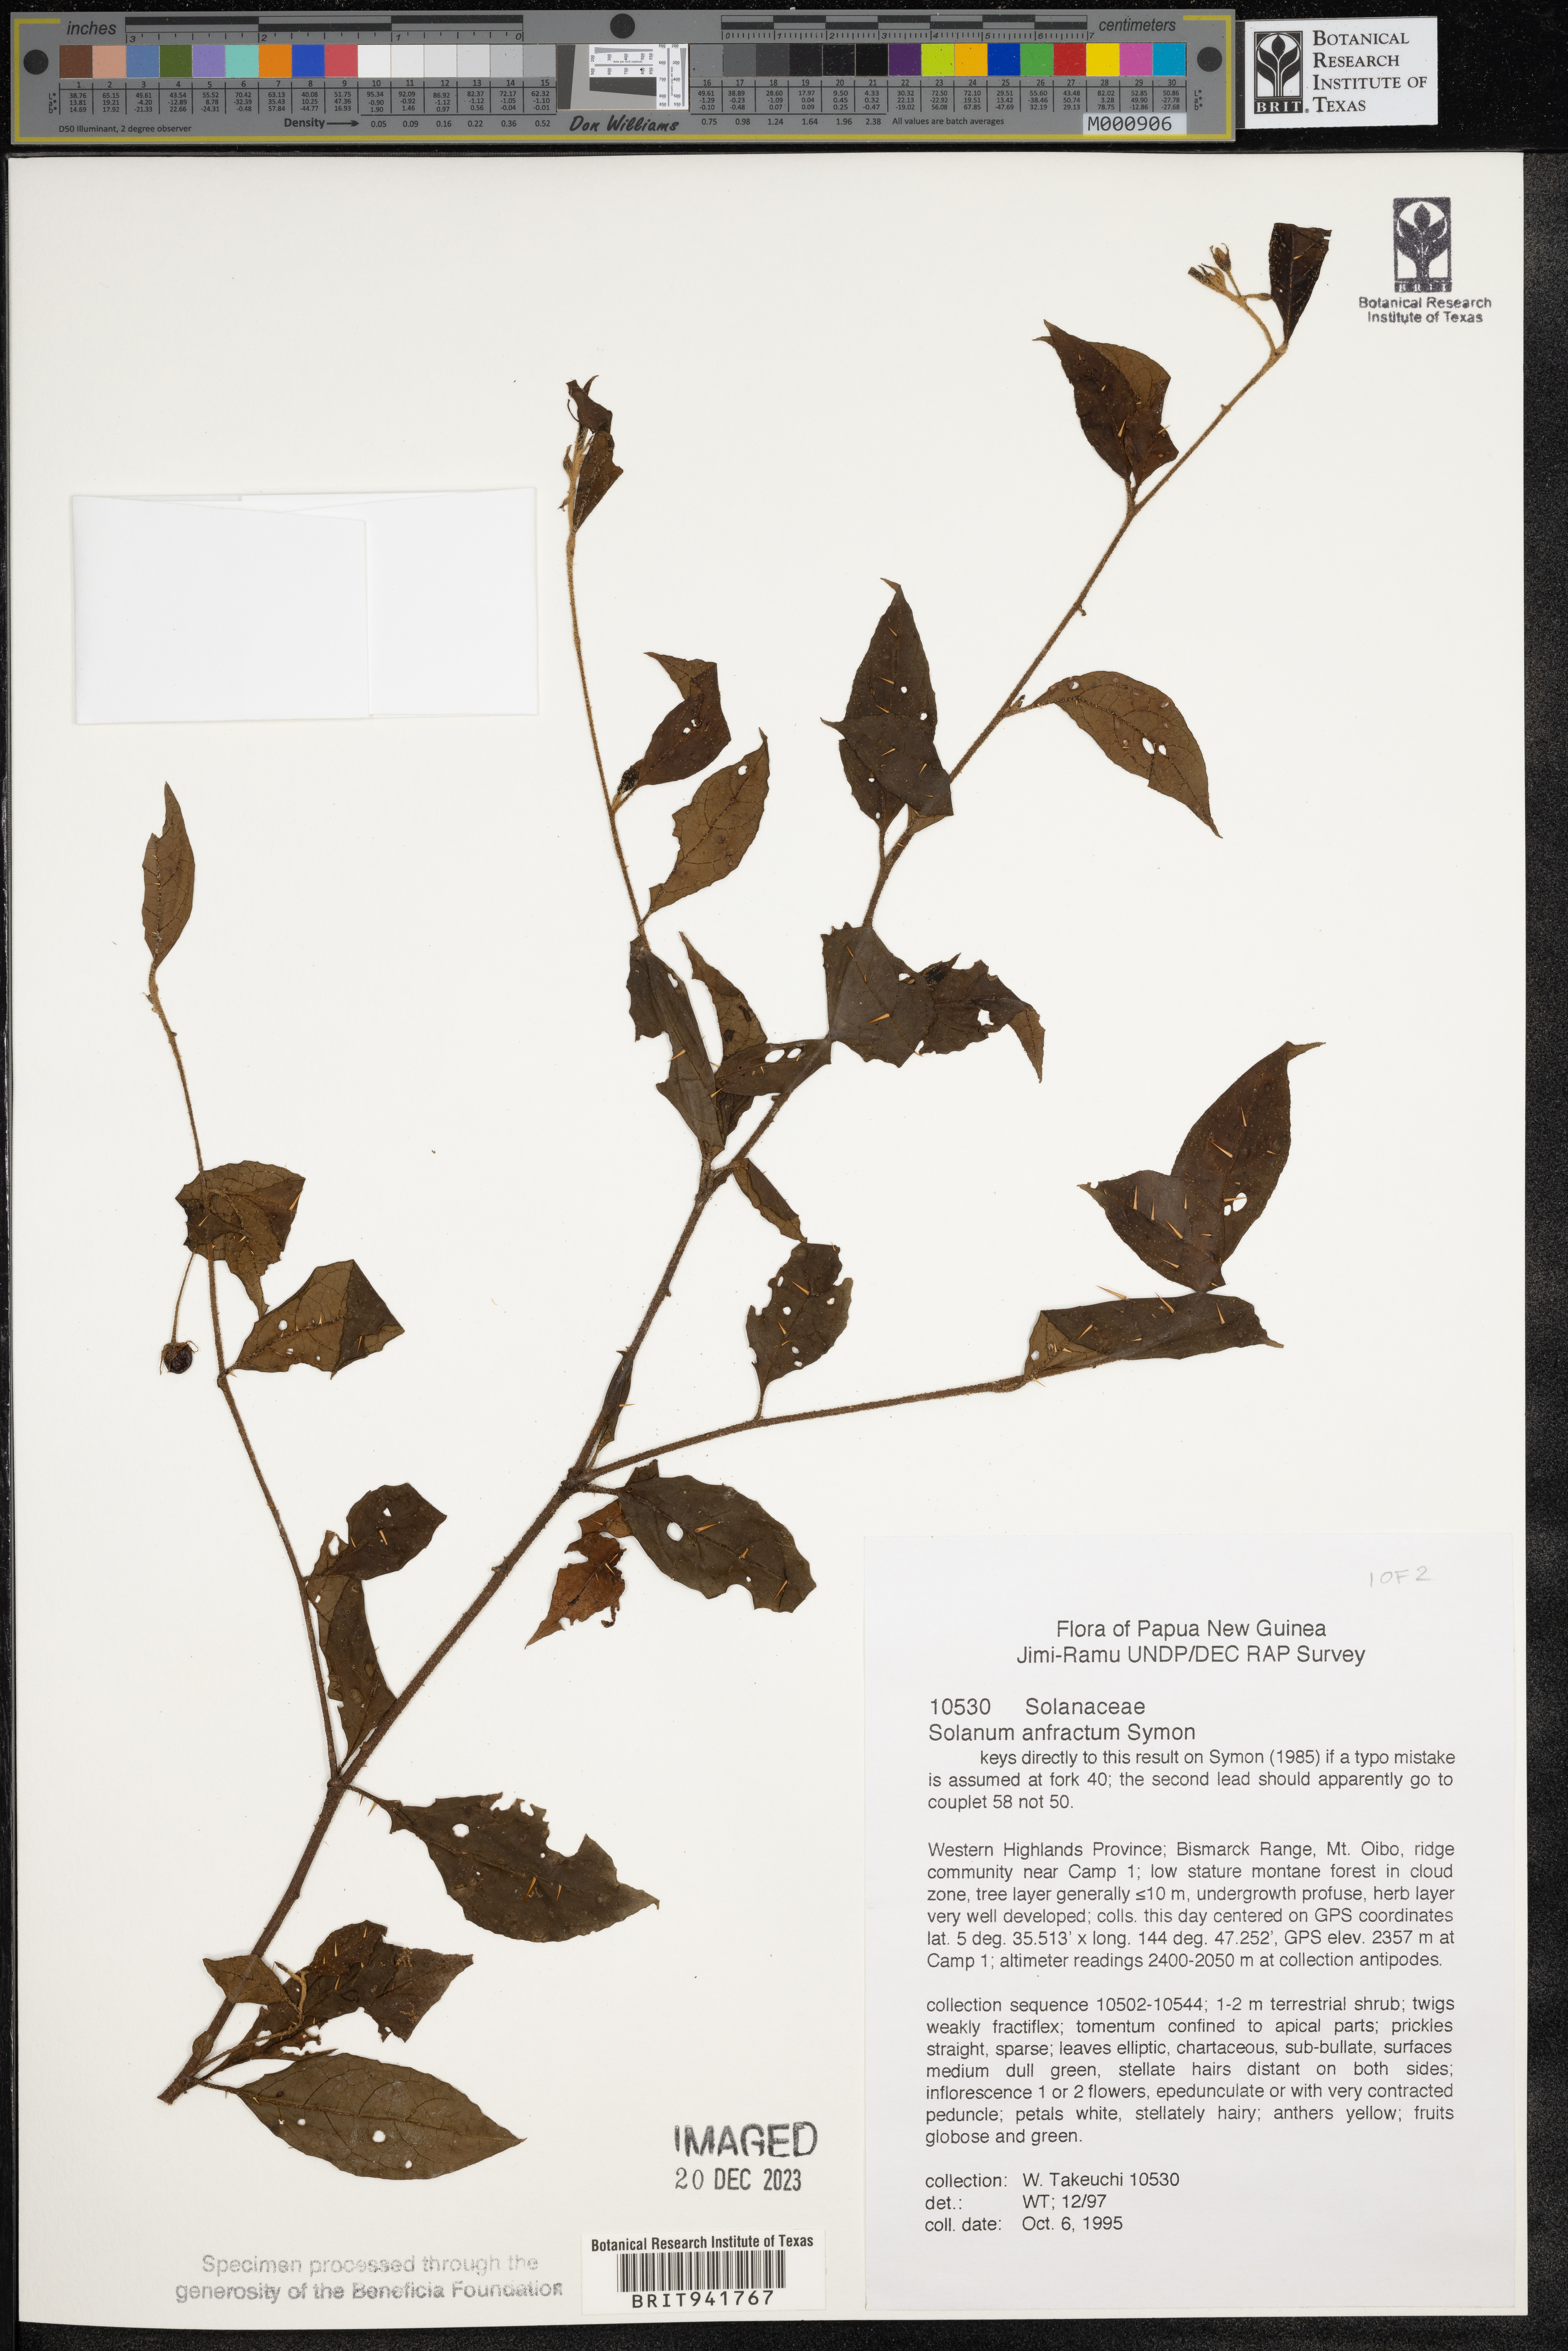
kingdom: Plantae
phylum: Tracheophyta
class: Magnoliopsida
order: Solanales
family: Solanaceae
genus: Solanum
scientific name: Solanum
